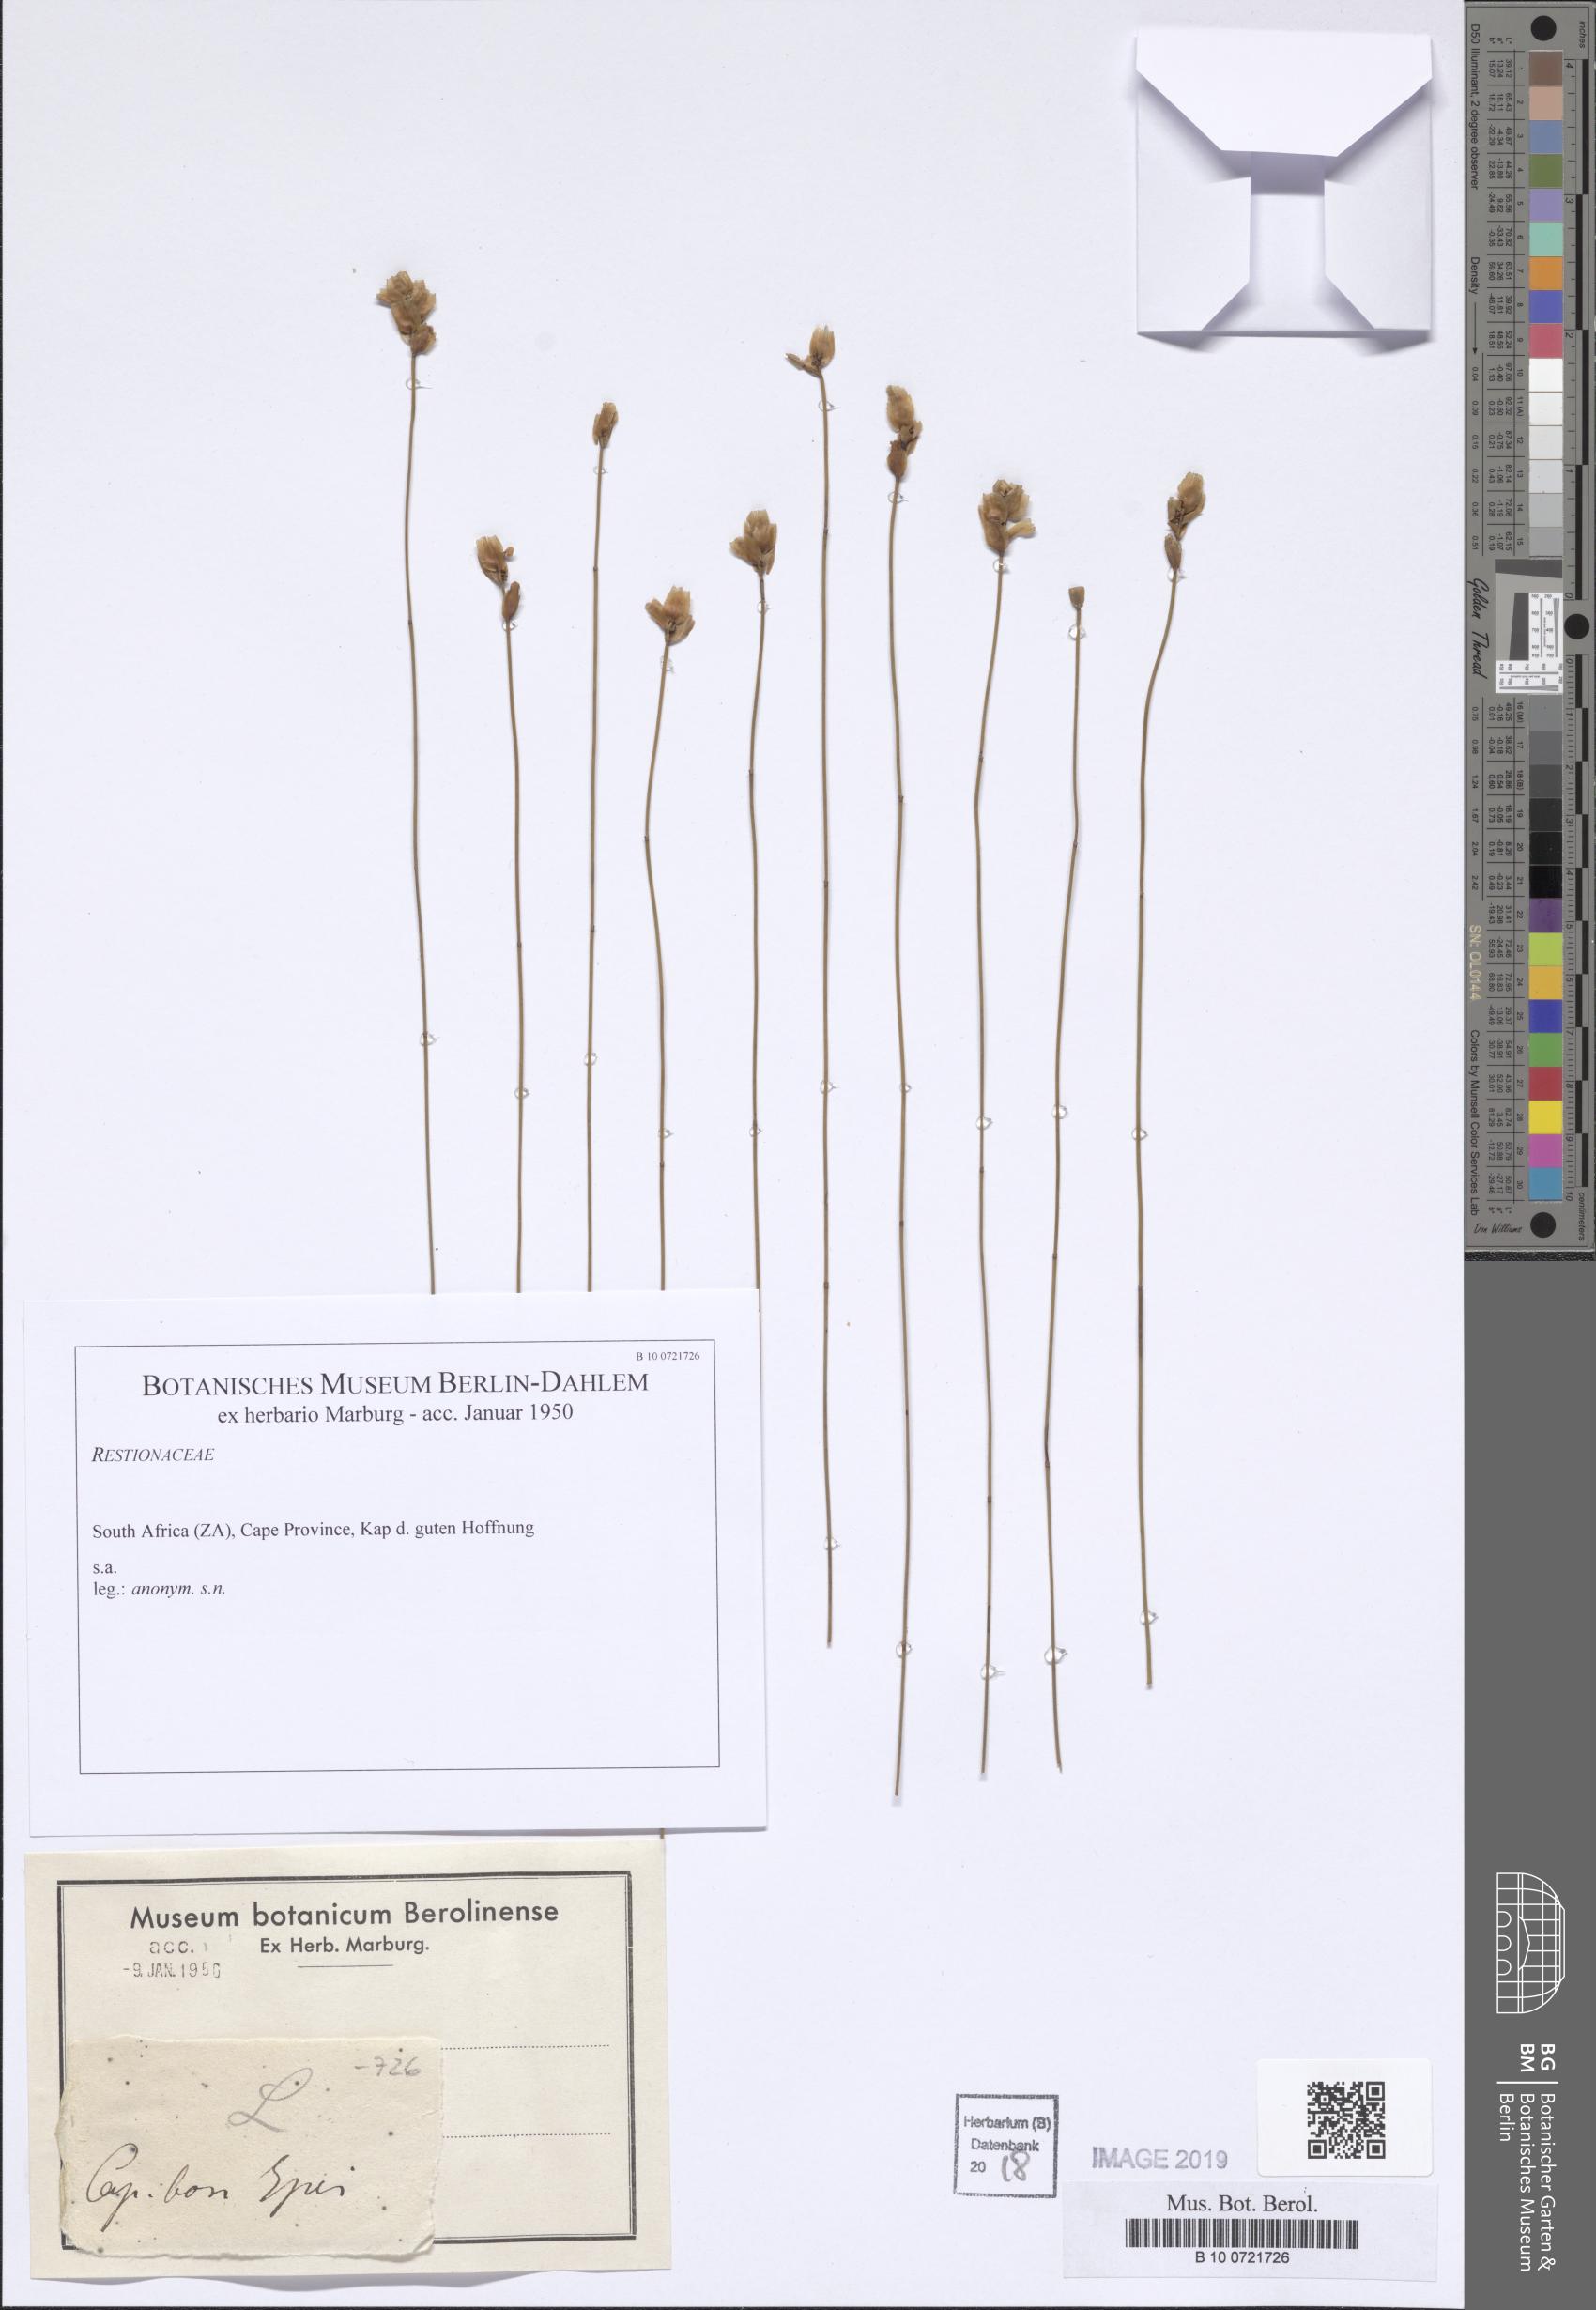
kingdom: Plantae
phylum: Tracheophyta
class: Liliopsida
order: Poales
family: Restionaceae
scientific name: Restionaceae
